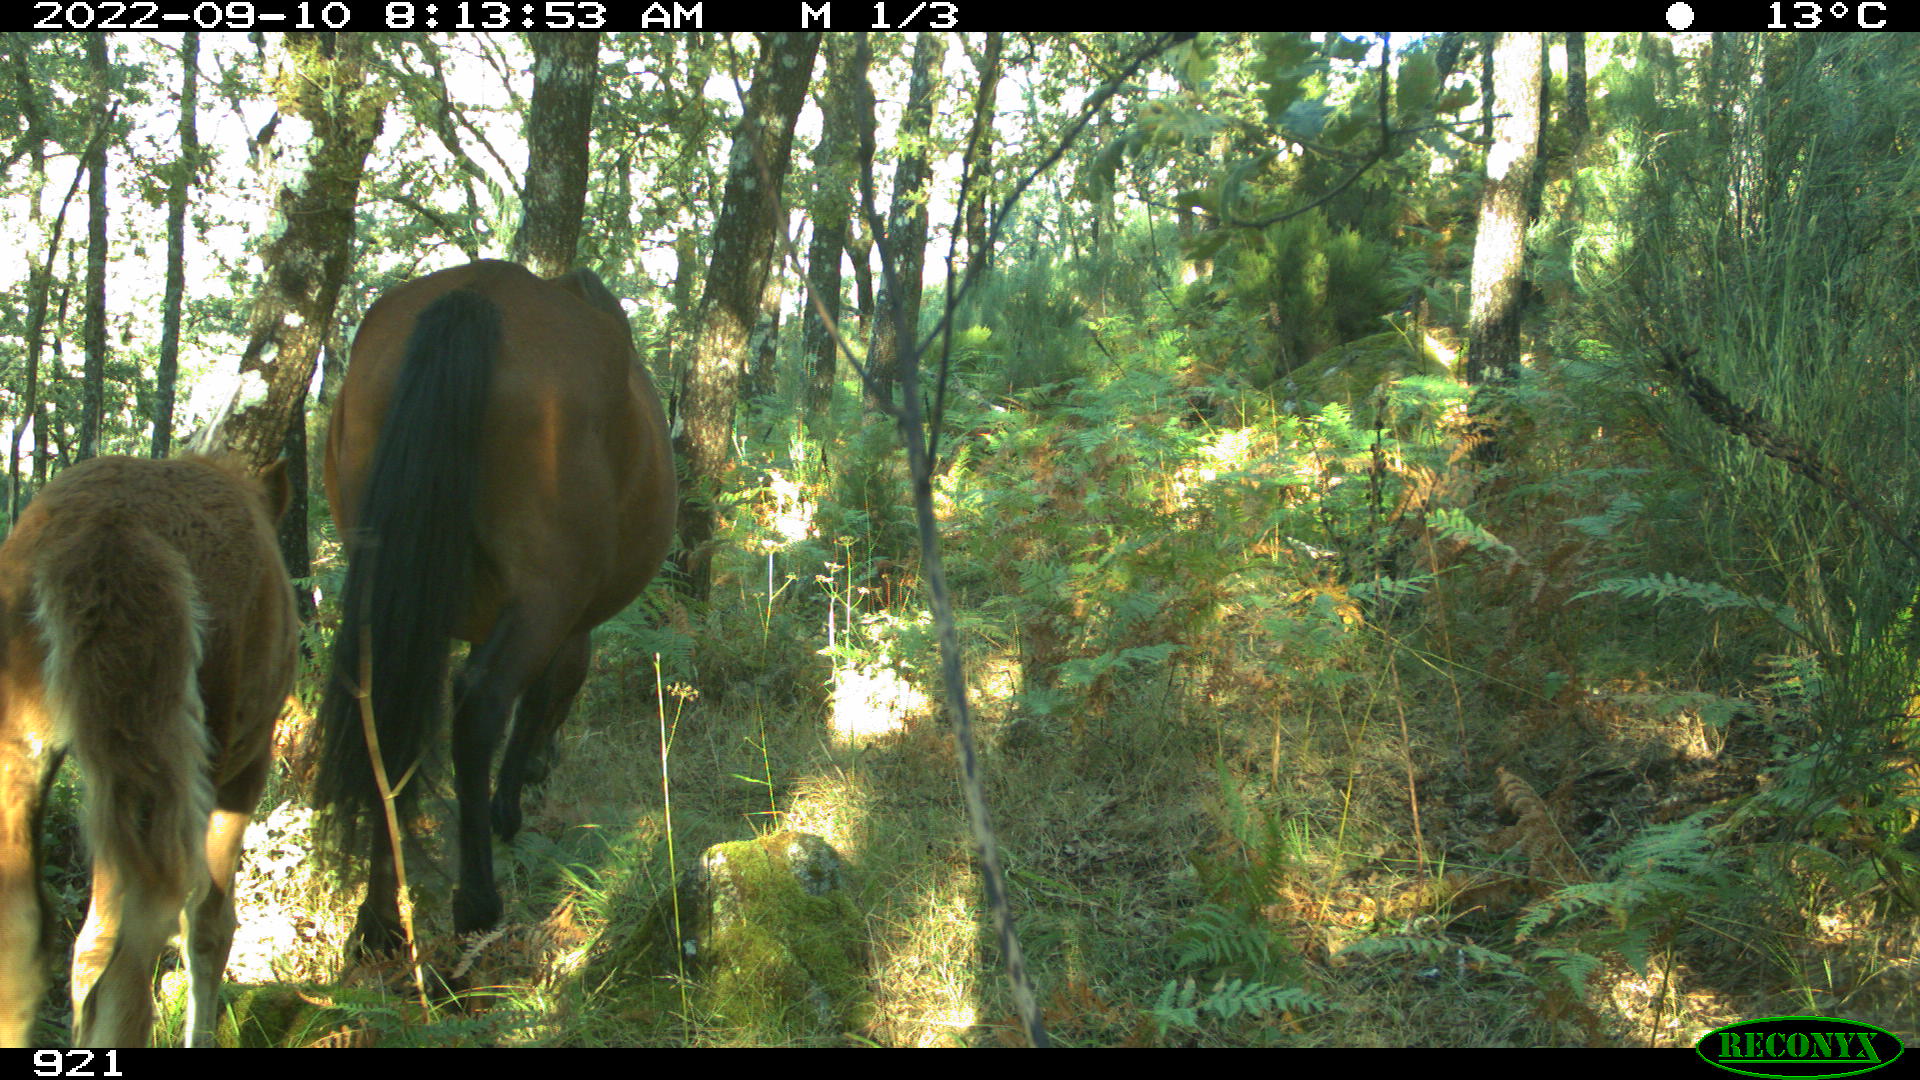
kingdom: Animalia
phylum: Chordata
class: Mammalia
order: Perissodactyla
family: Equidae
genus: Equus
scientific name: Equus caballus
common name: Horse
